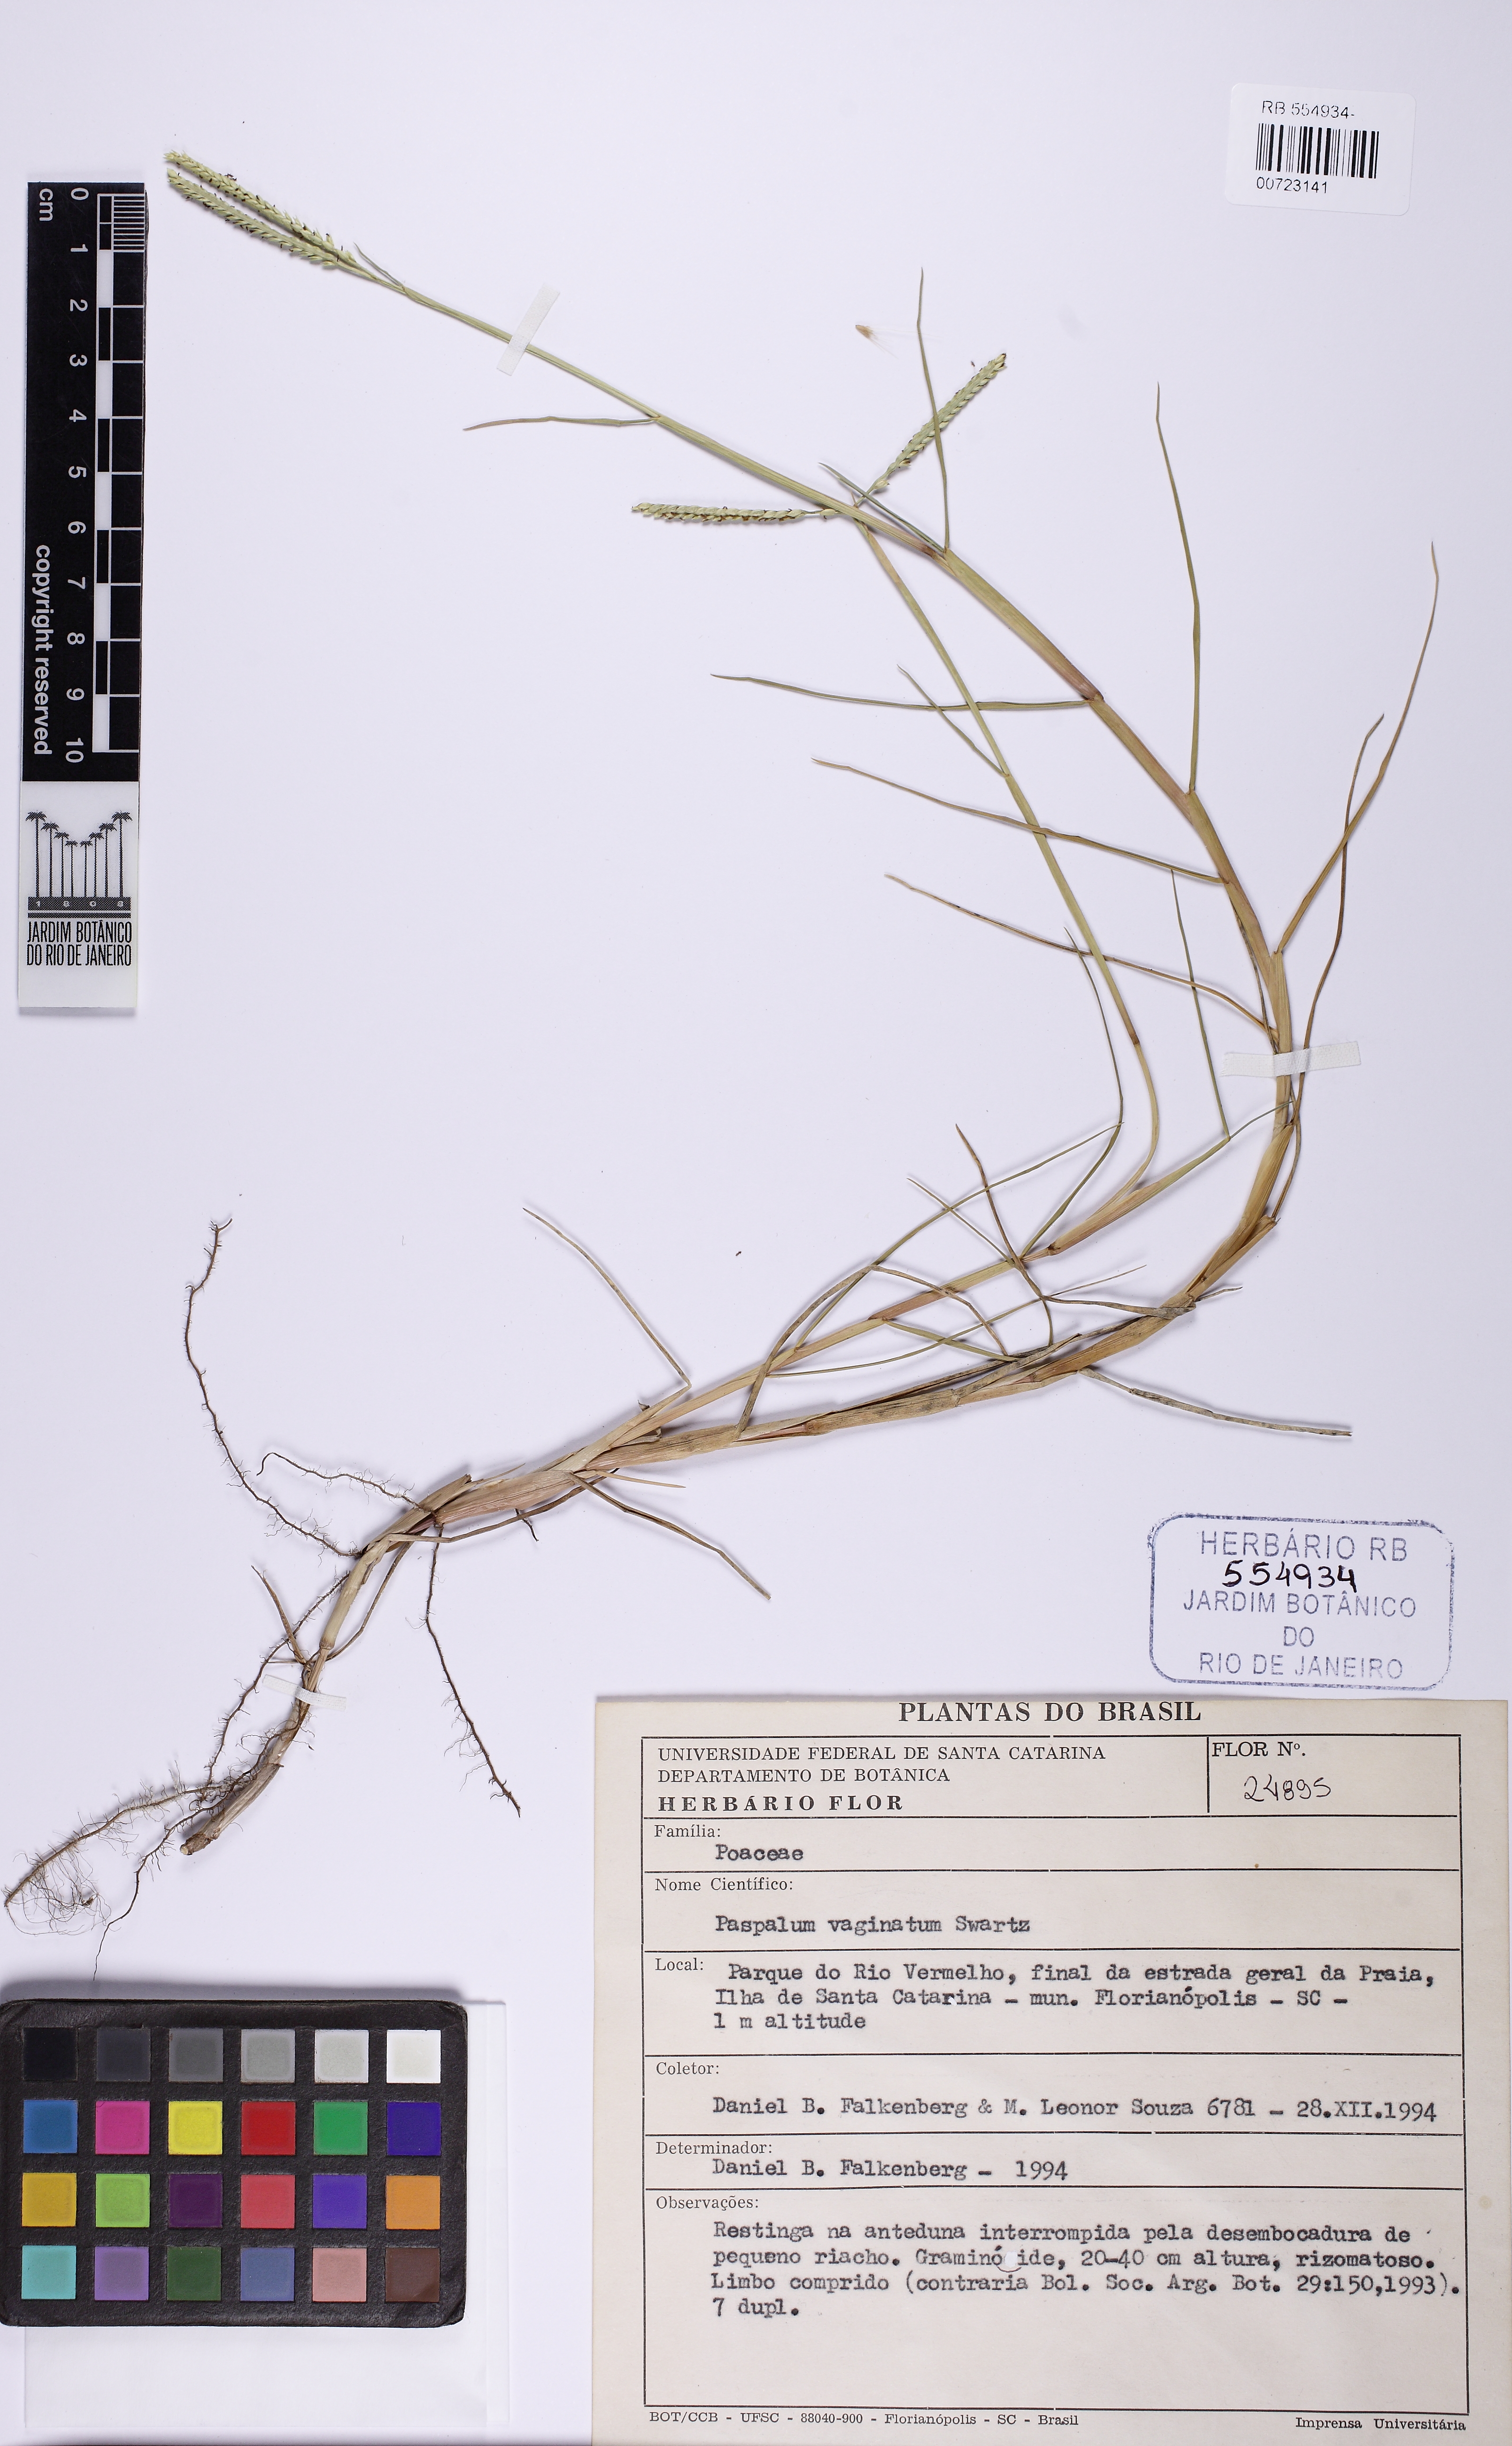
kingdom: Plantae
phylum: Tracheophyta
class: Liliopsida
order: Poales
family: Poaceae
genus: Paspalum
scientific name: Paspalum vaginatum
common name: Seashore paspalum
